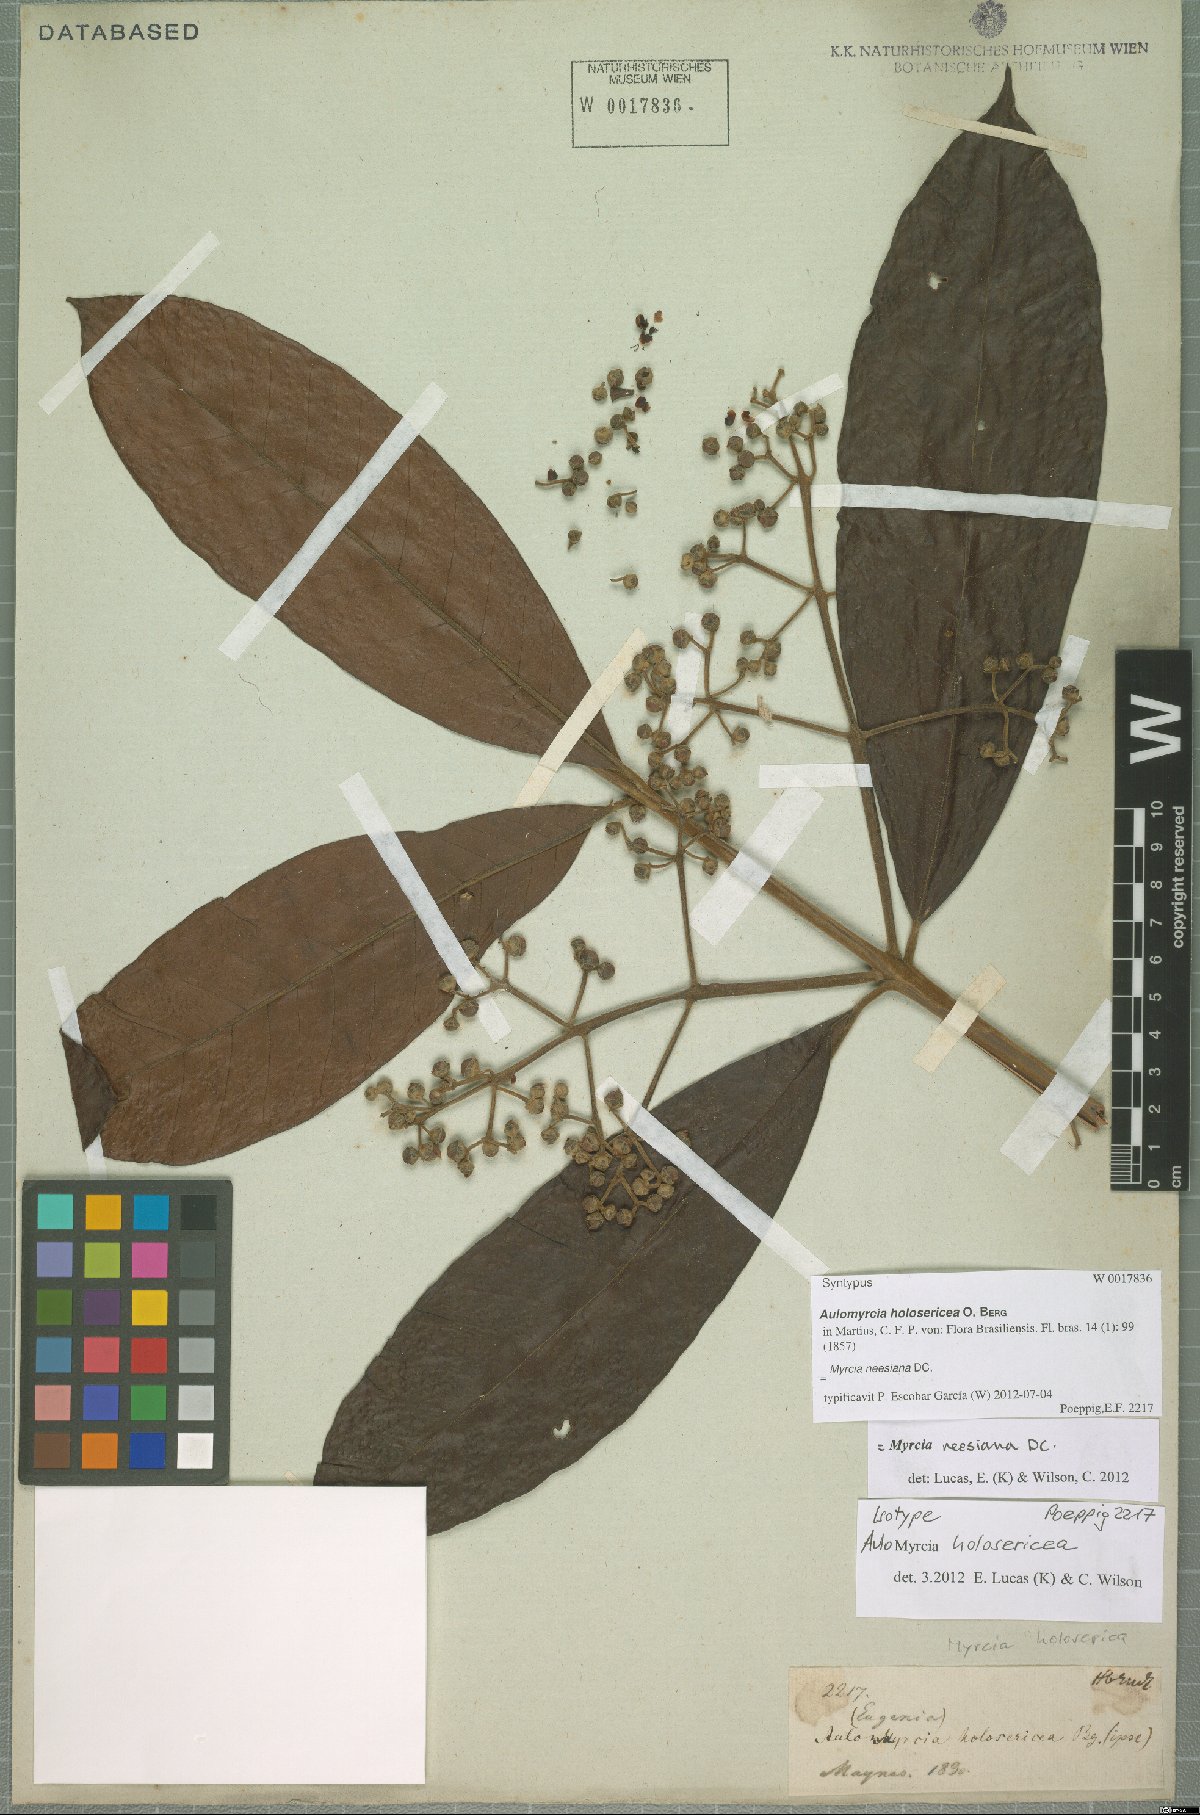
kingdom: Plantae
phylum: Tracheophyta
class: Magnoliopsida
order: Myrtales
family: Myrtaceae
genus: Myrcia
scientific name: Myrcia neesiana
